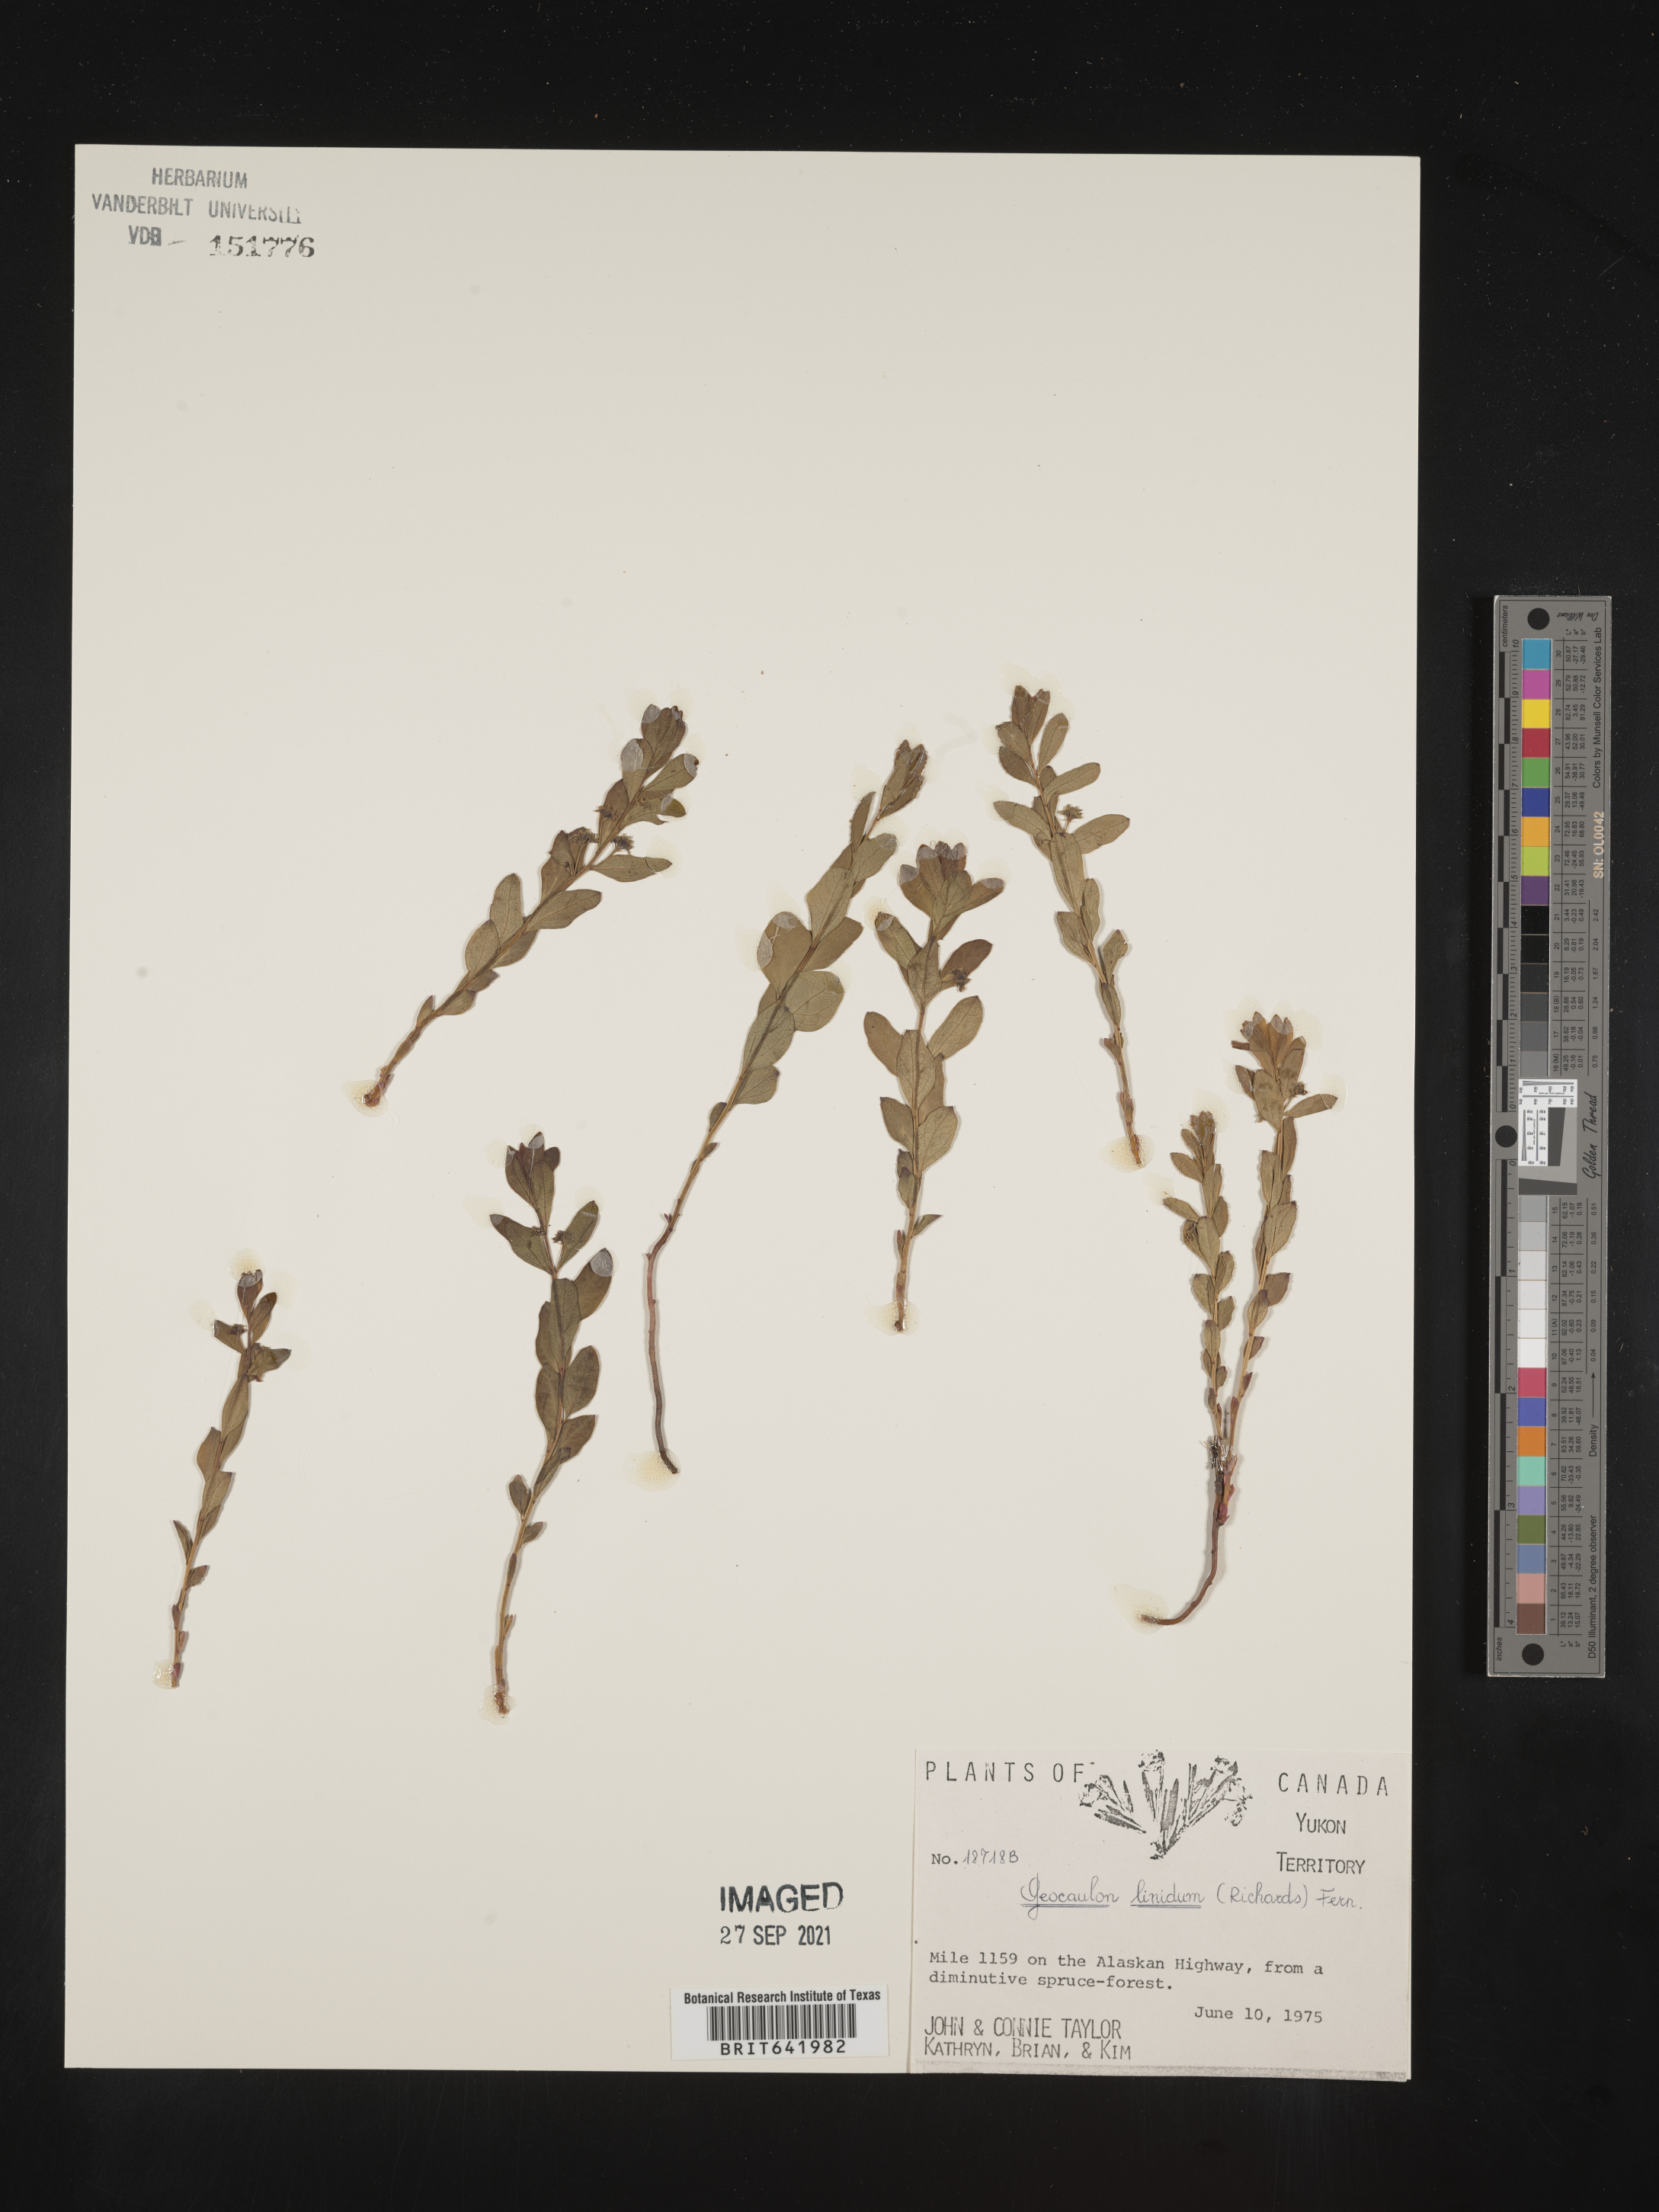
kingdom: Plantae
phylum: Tracheophyta
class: Magnoliopsida
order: Santalales
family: Comandraceae
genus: Geocaulon
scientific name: Geocaulon
